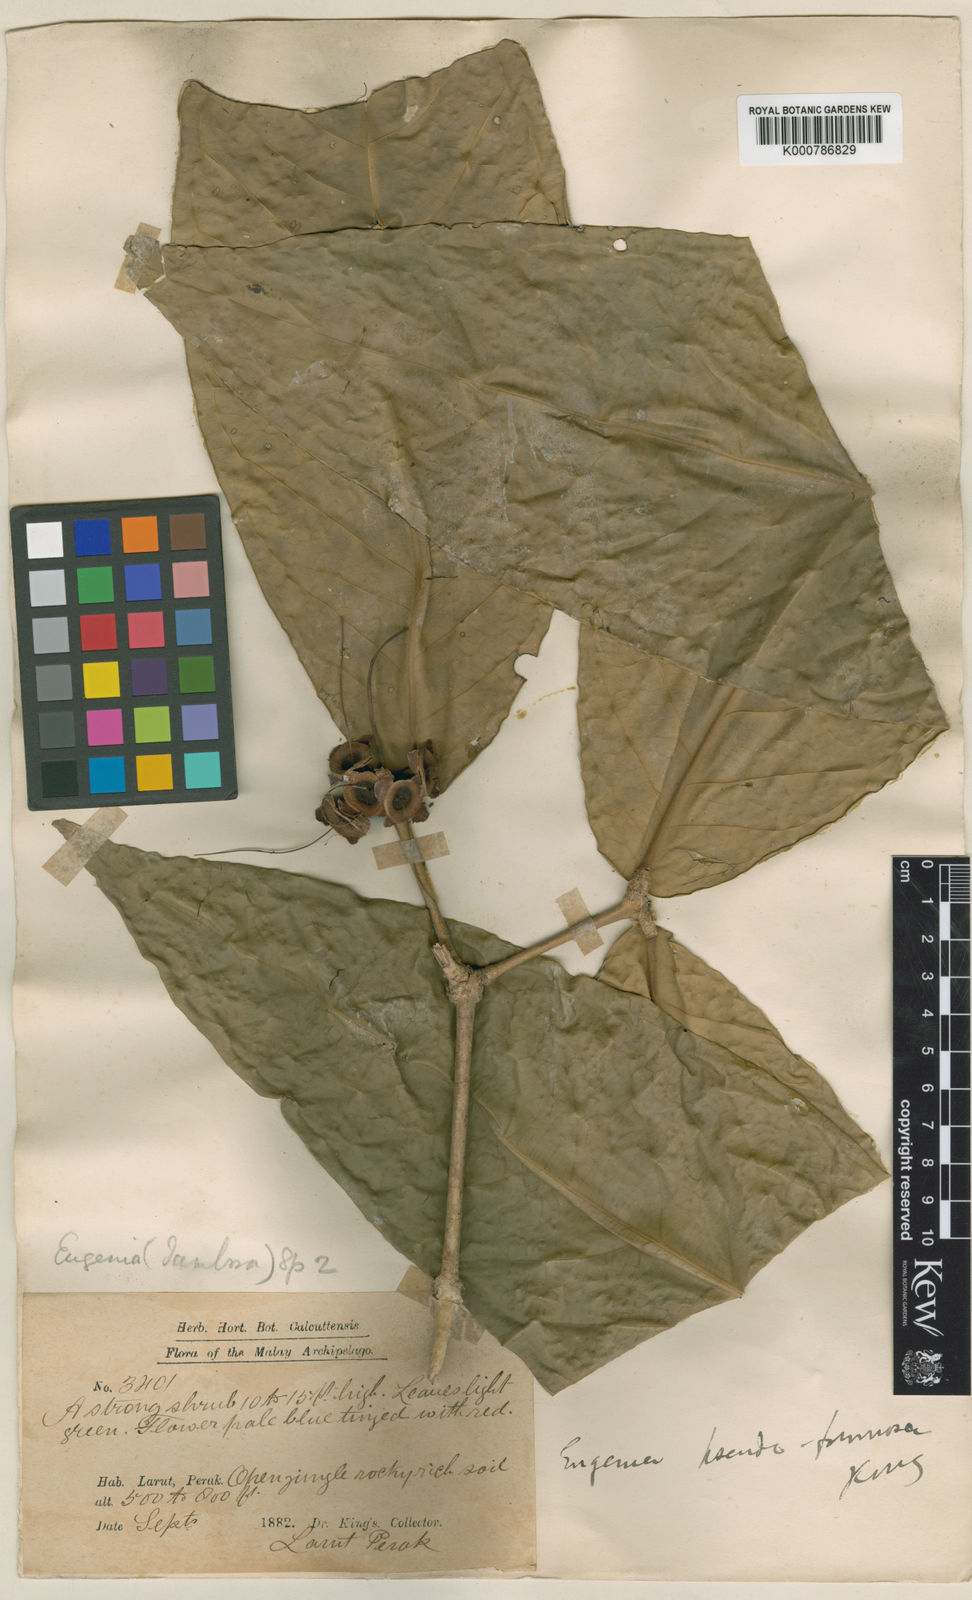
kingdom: Plantae
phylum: Tracheophyta
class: Magnoliopsida
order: Myrtales
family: Myrtaceae
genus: Syzygium
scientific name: Syzygium formosum
